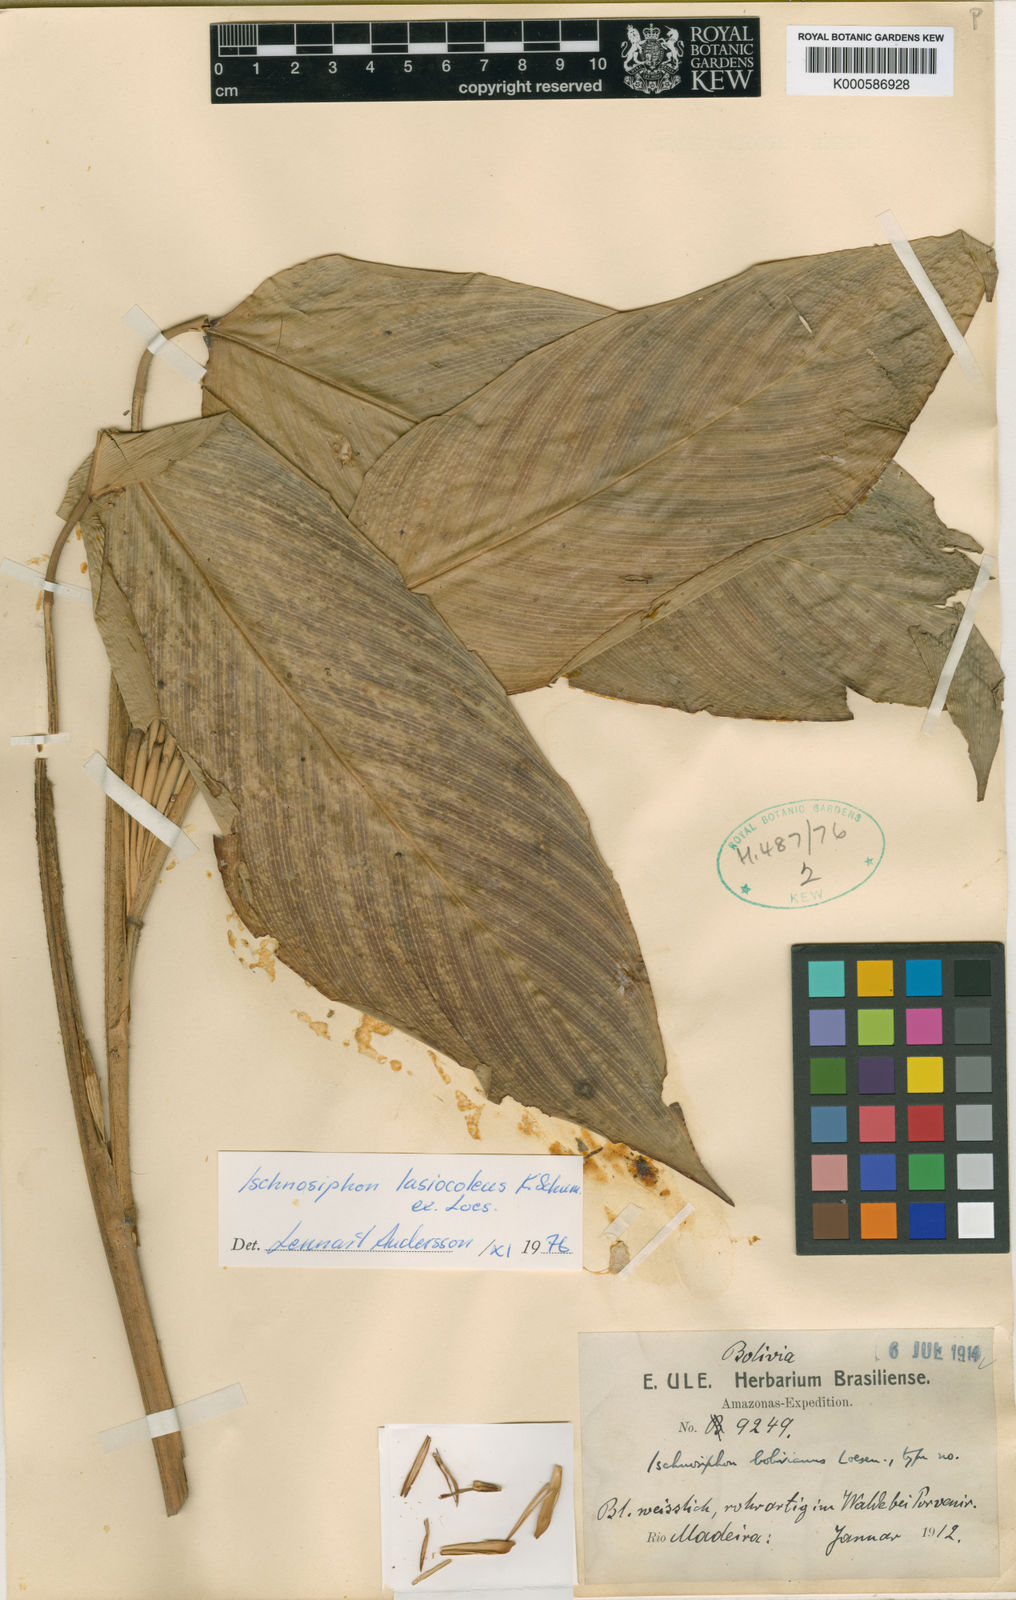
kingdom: Plantae
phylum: Tracheophyta
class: Liliopsida
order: Zingiberales
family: Marantaceae
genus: Ischnosiphon
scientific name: Ischnosiphon lasiocoleus
